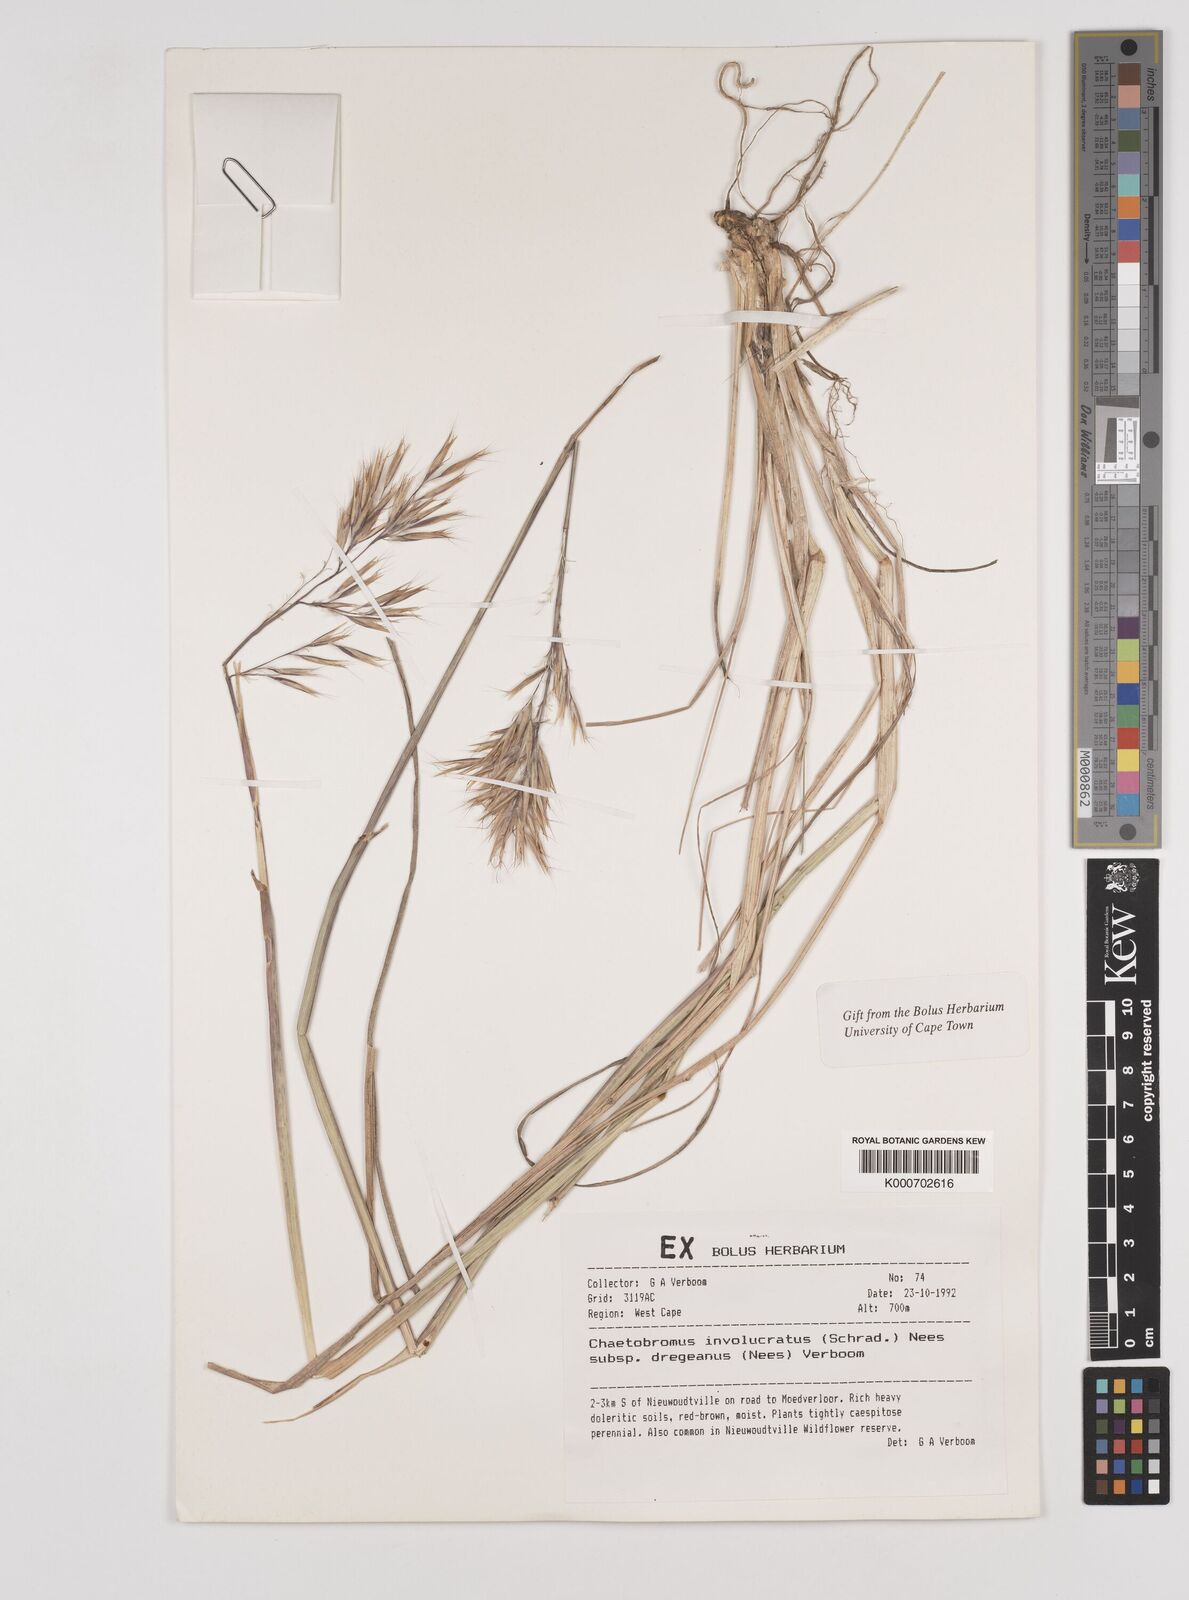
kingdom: Plantae
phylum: Tracheophyta
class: Liliopsida
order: Poales
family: Poaceae
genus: Chaetobromus
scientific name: Chaetobromus involucratus
